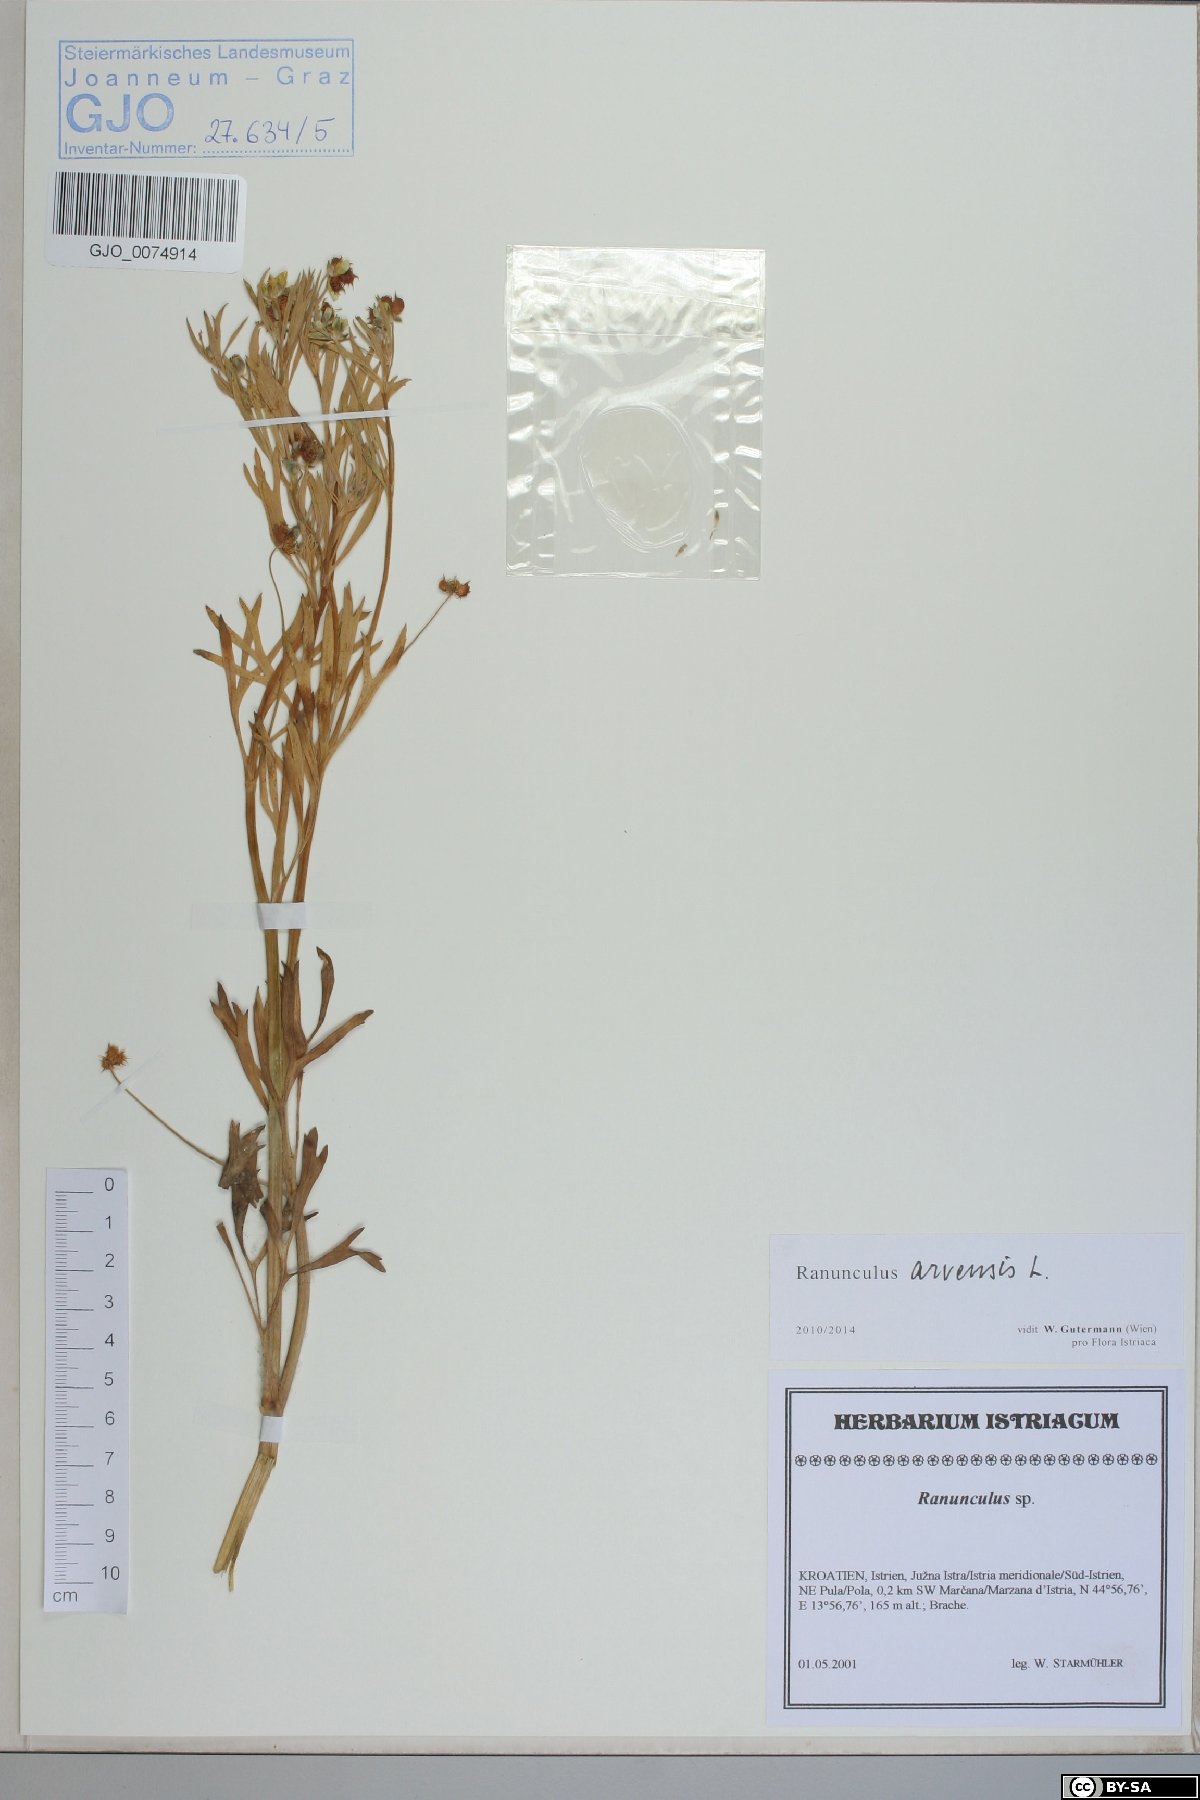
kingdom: Plantae
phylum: Tracheophyta
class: Magnoliopsida
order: Ranunculales
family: Ranunculaceae
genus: Ranunculus
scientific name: Ranunculus arvensis
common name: Corn buttercup
